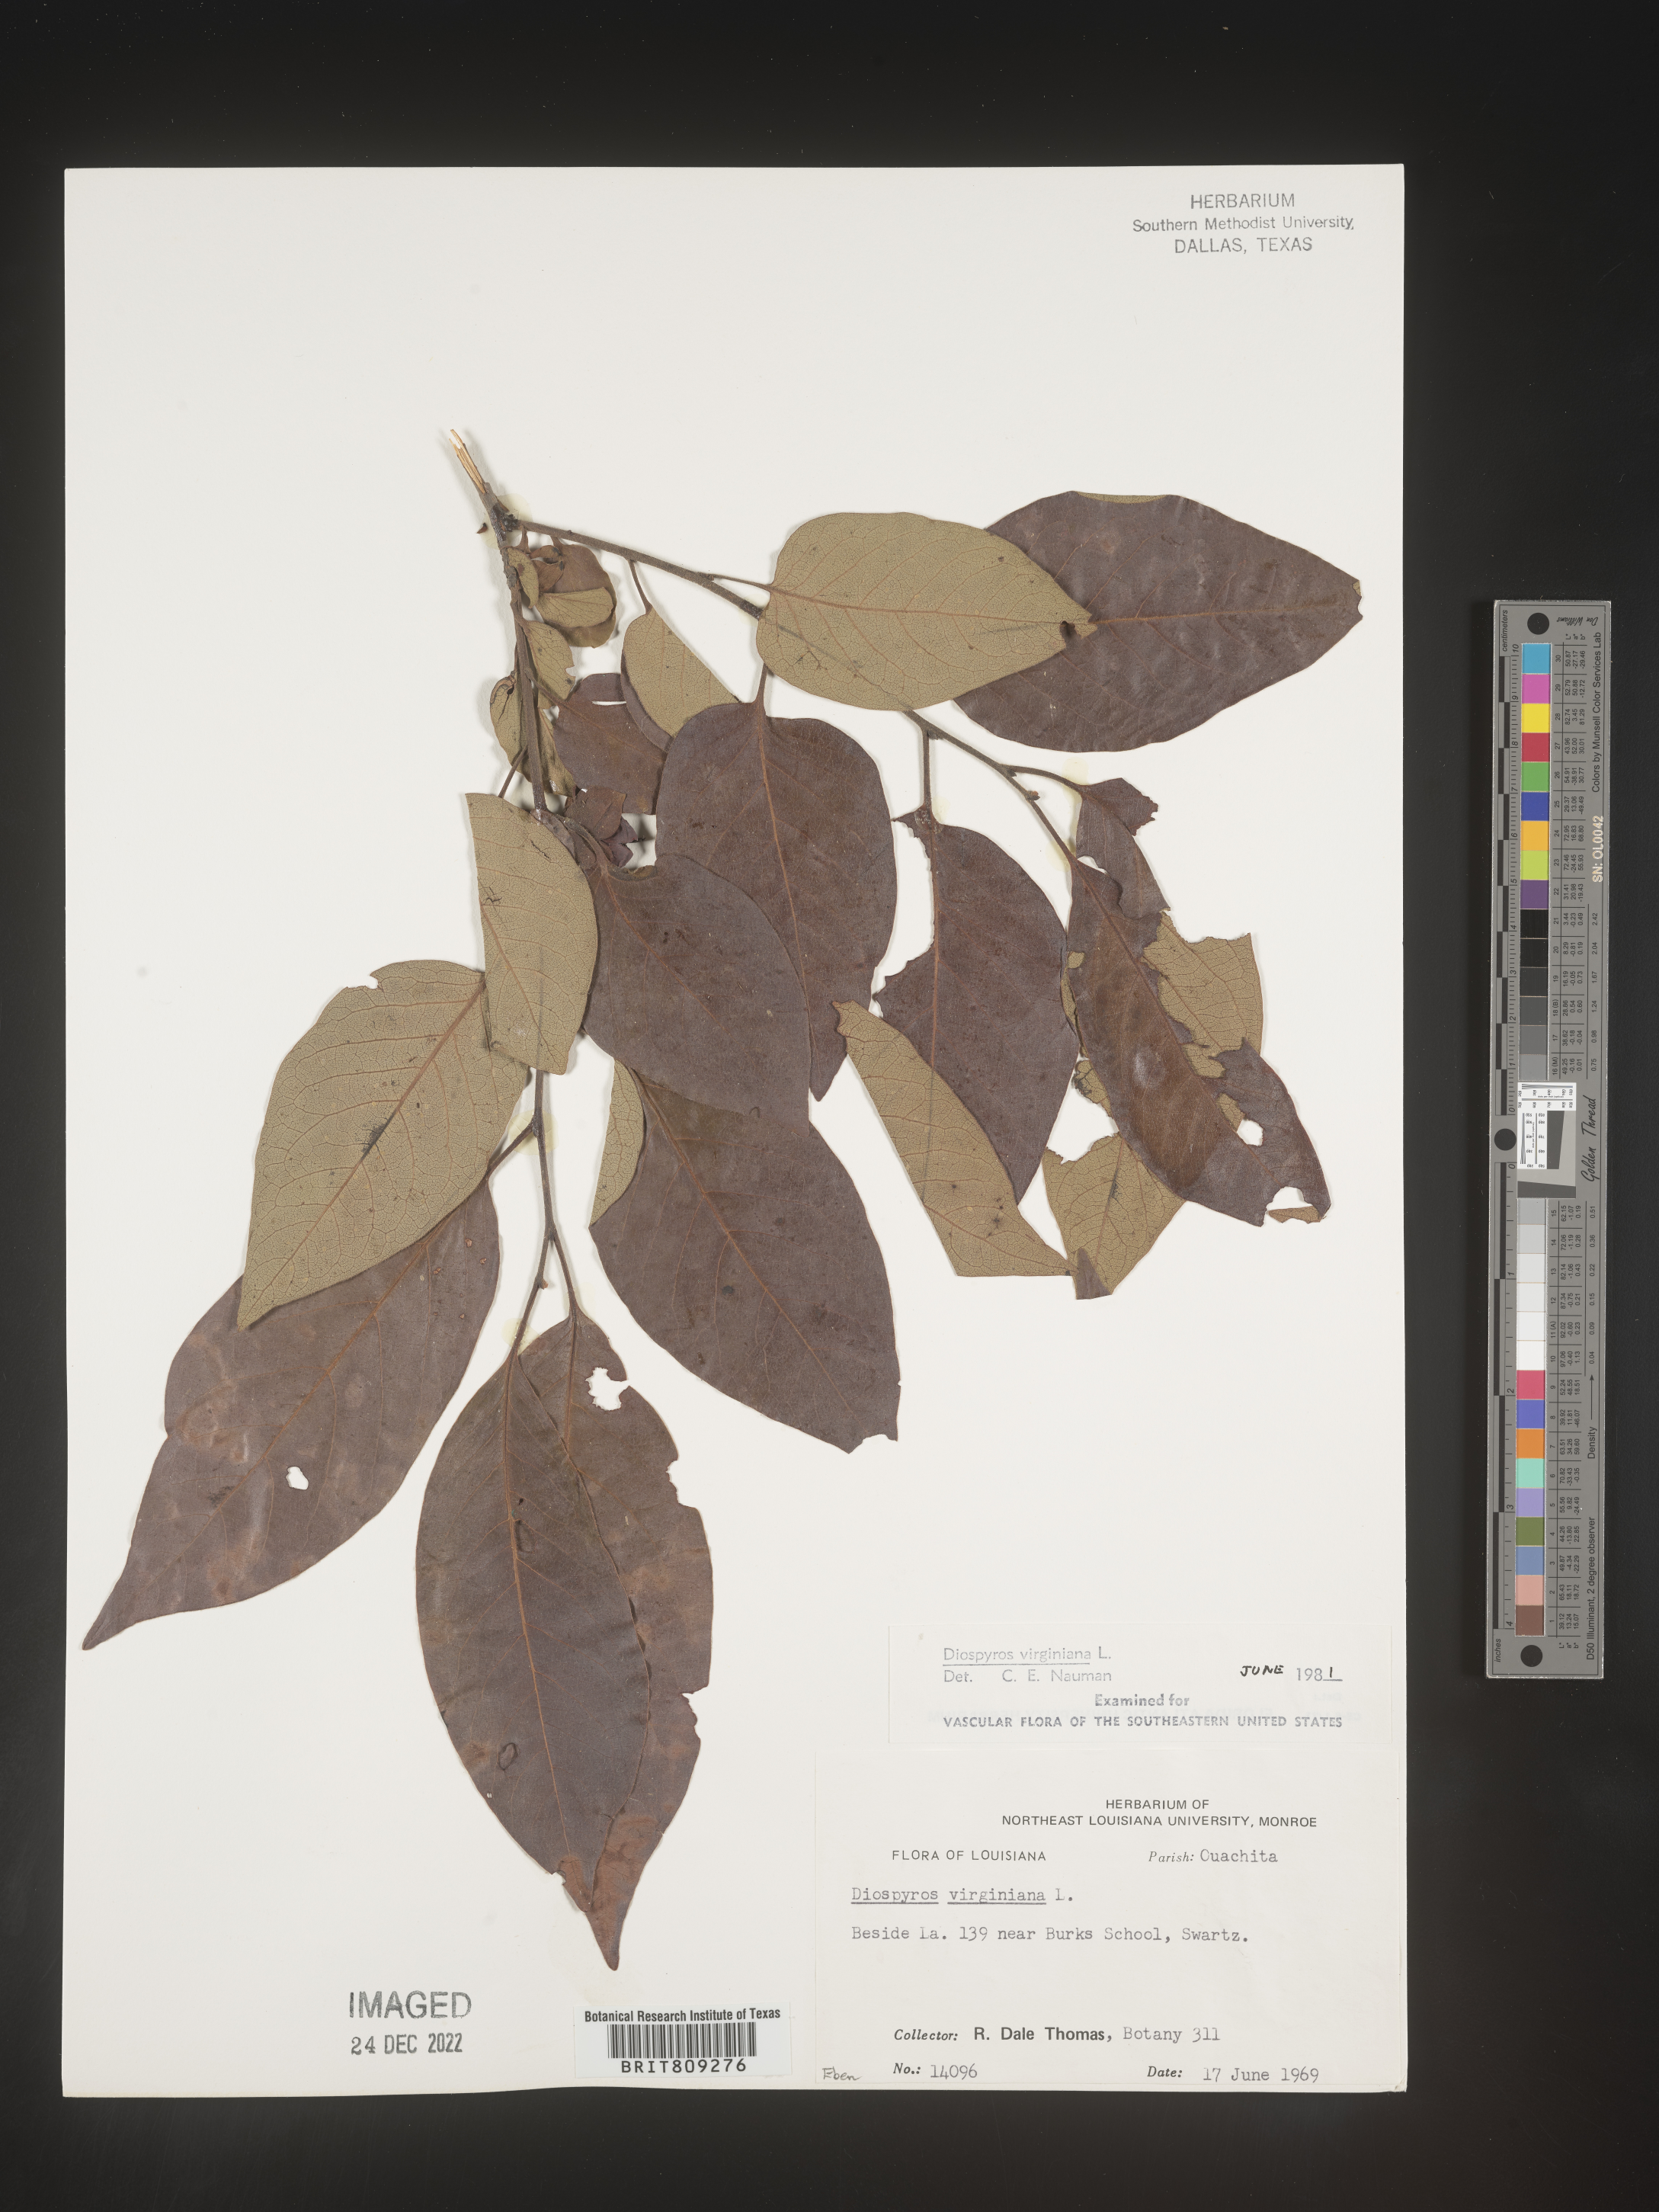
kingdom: Plantae
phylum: Tracheophyta
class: Magnoliopsida
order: Ericales
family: Ebenaceae
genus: Diospyros
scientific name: Diospyros virginiana
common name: Persimmon
